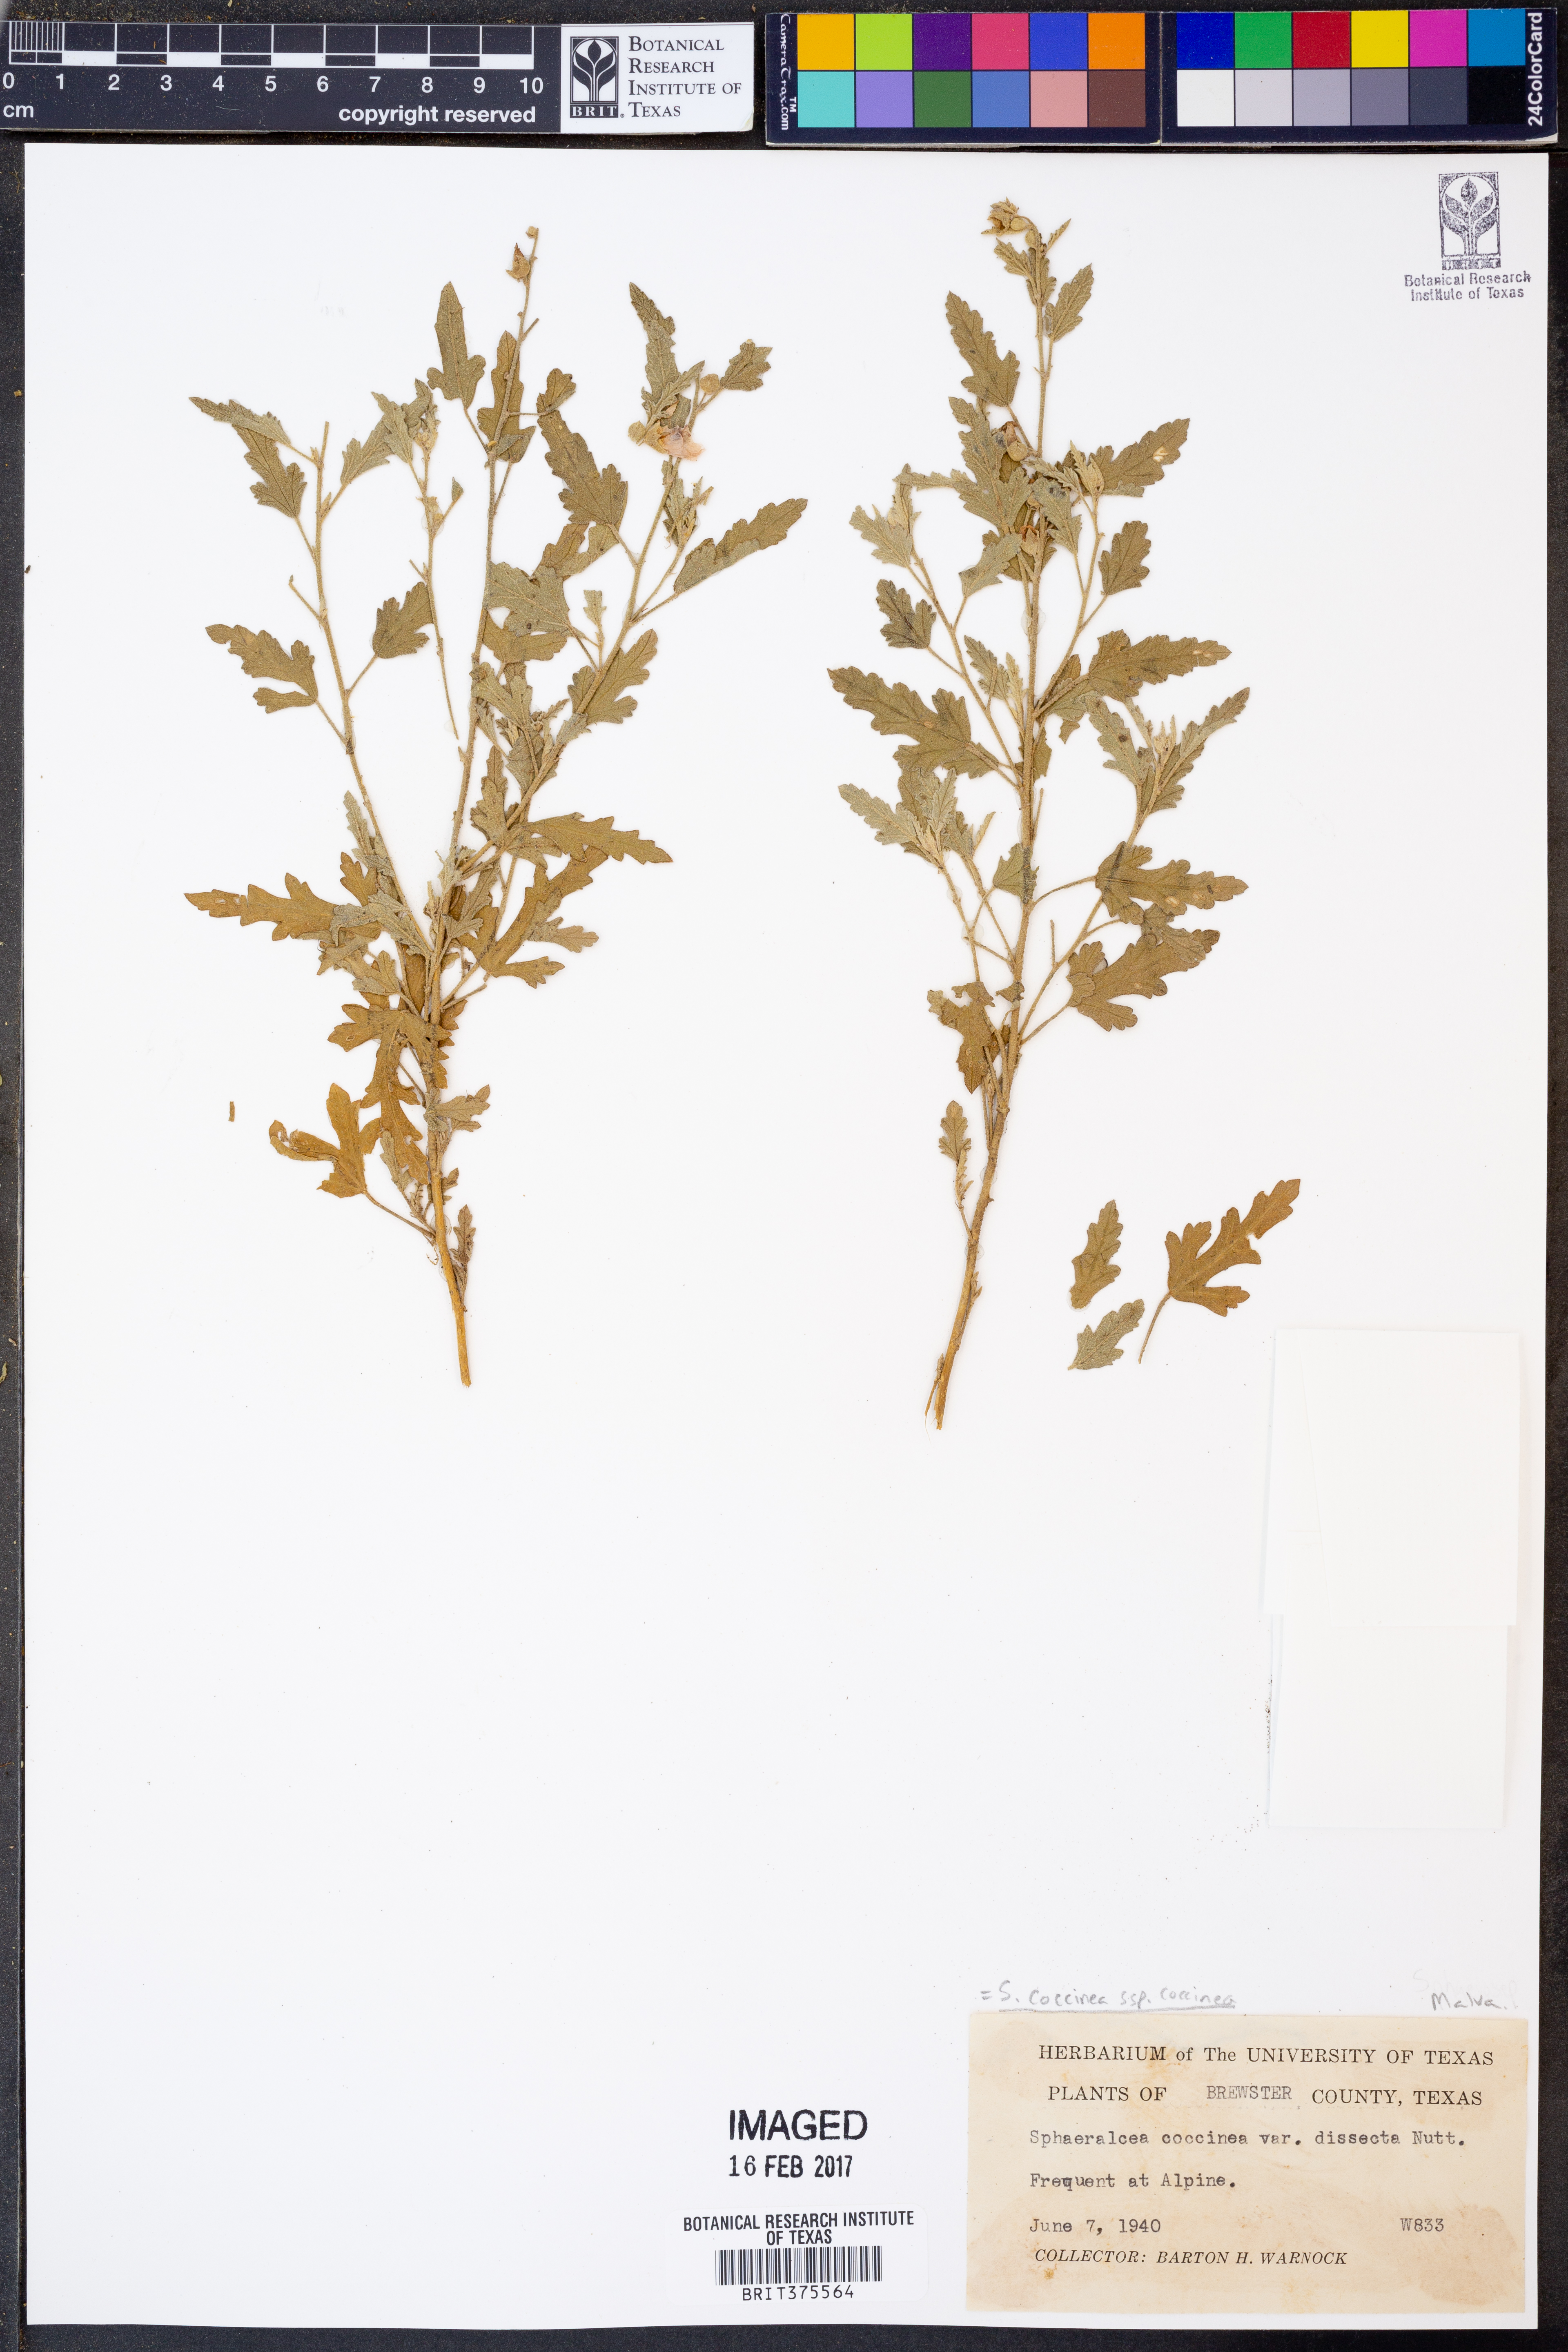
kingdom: Plantae
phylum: Tracheophyta
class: Magnoliopsida
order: Malvales
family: Malvaceae
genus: Sphaeralcea
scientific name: Sphaeralcea coccinea
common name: Moss-rose
